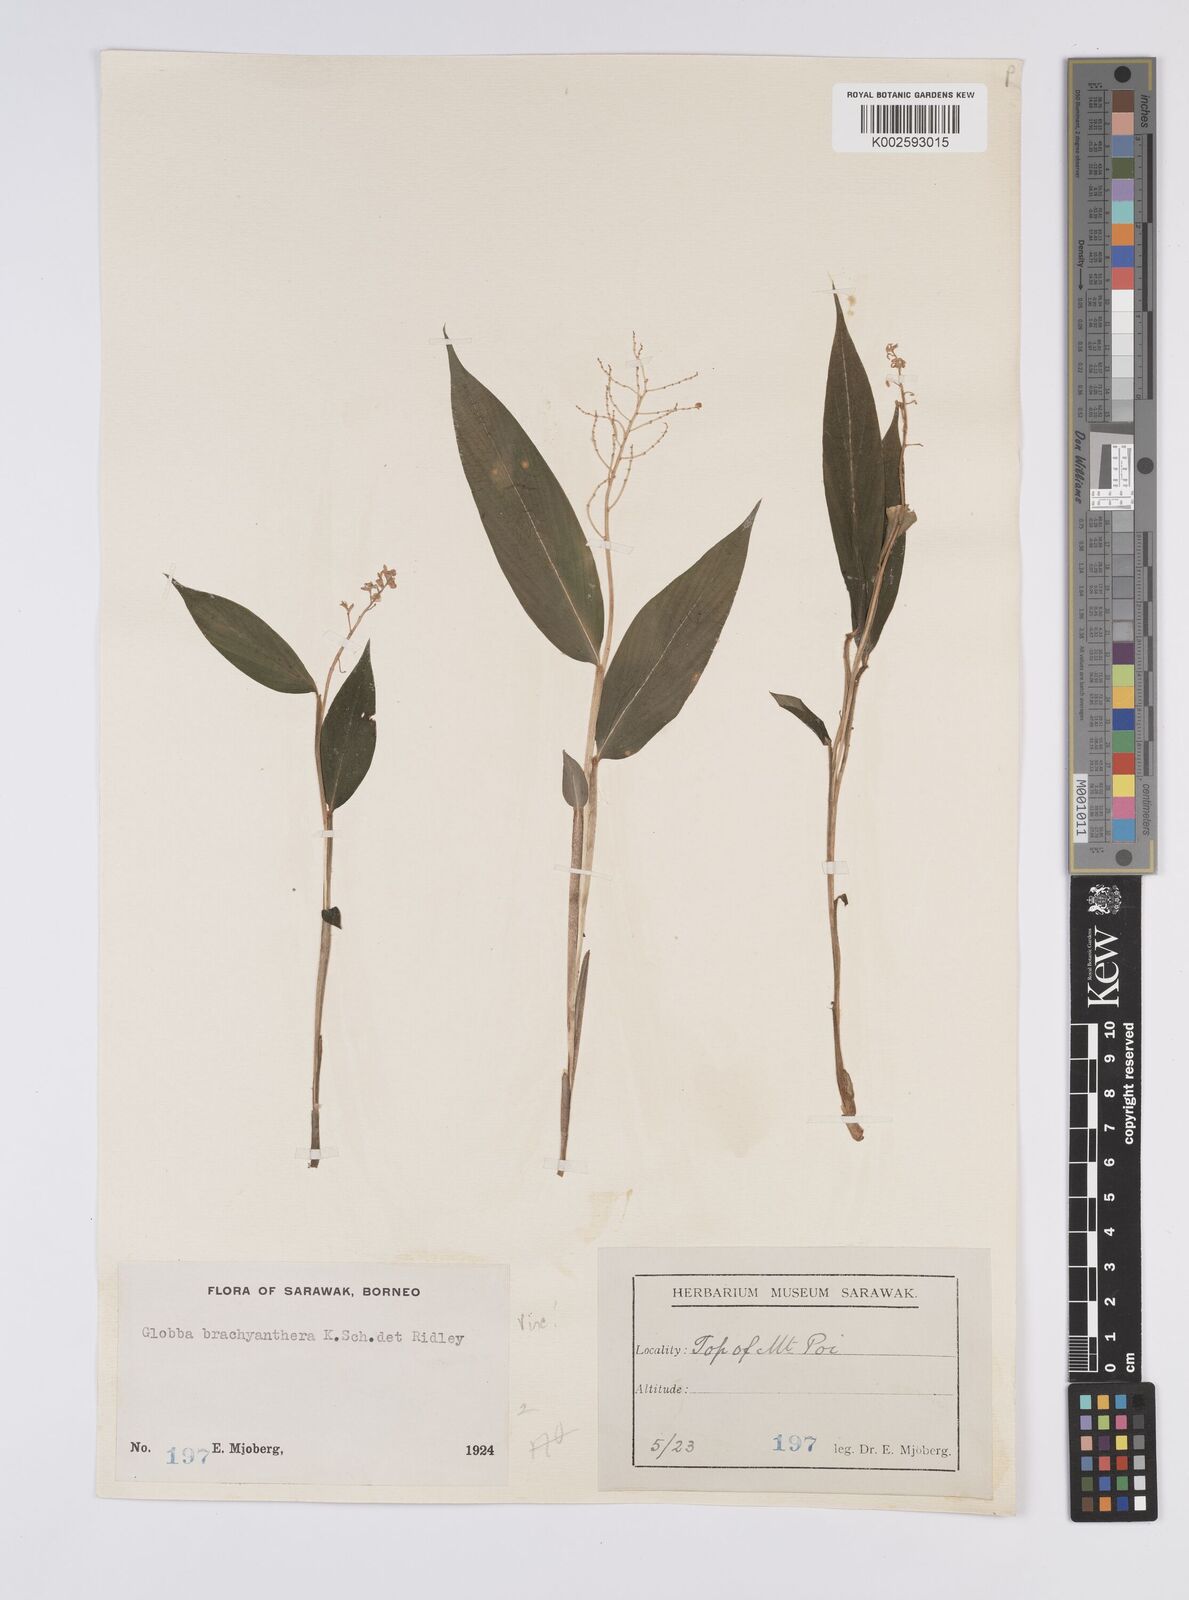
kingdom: Plantae
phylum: Tracheophyta
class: Liliopsida
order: Zingiberales
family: Zingiberaceae
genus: Globba
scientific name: Globba brachyanthera
